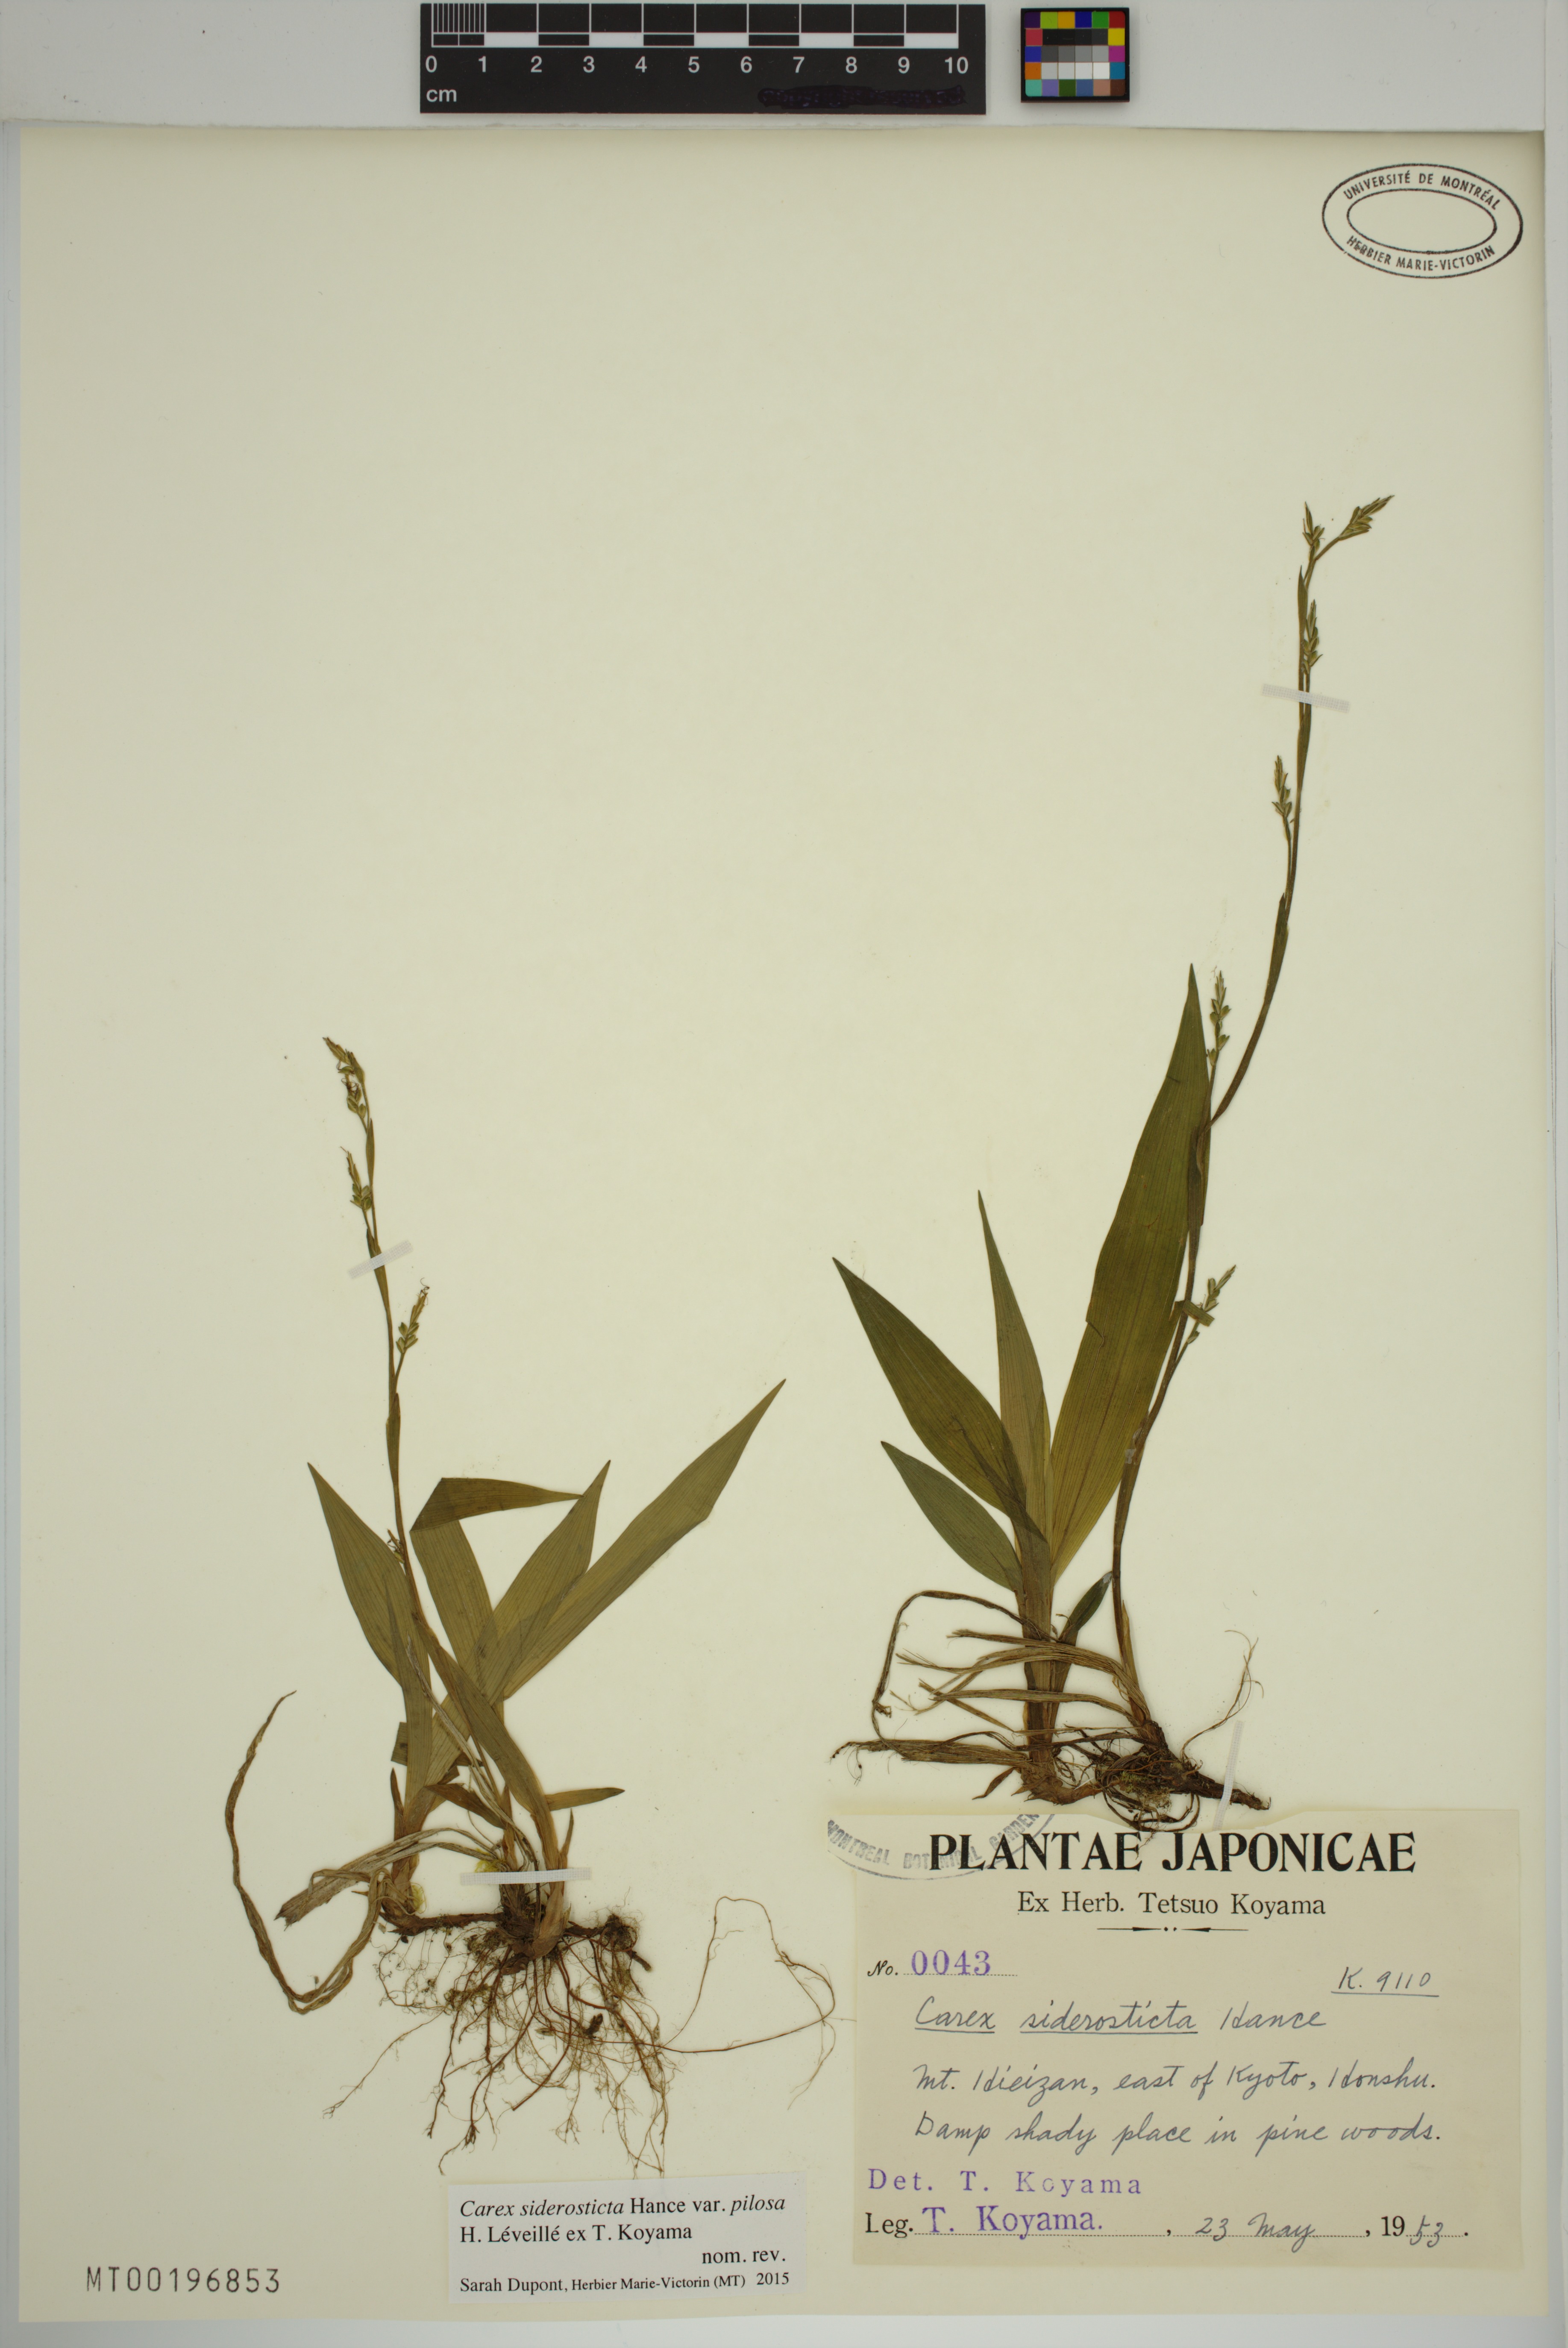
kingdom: Plantae
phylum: Tracheophyta
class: Liliopsida
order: Poales
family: Cyperaceae
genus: Carex
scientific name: Carex siderosticta
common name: Broadleaf sedge
